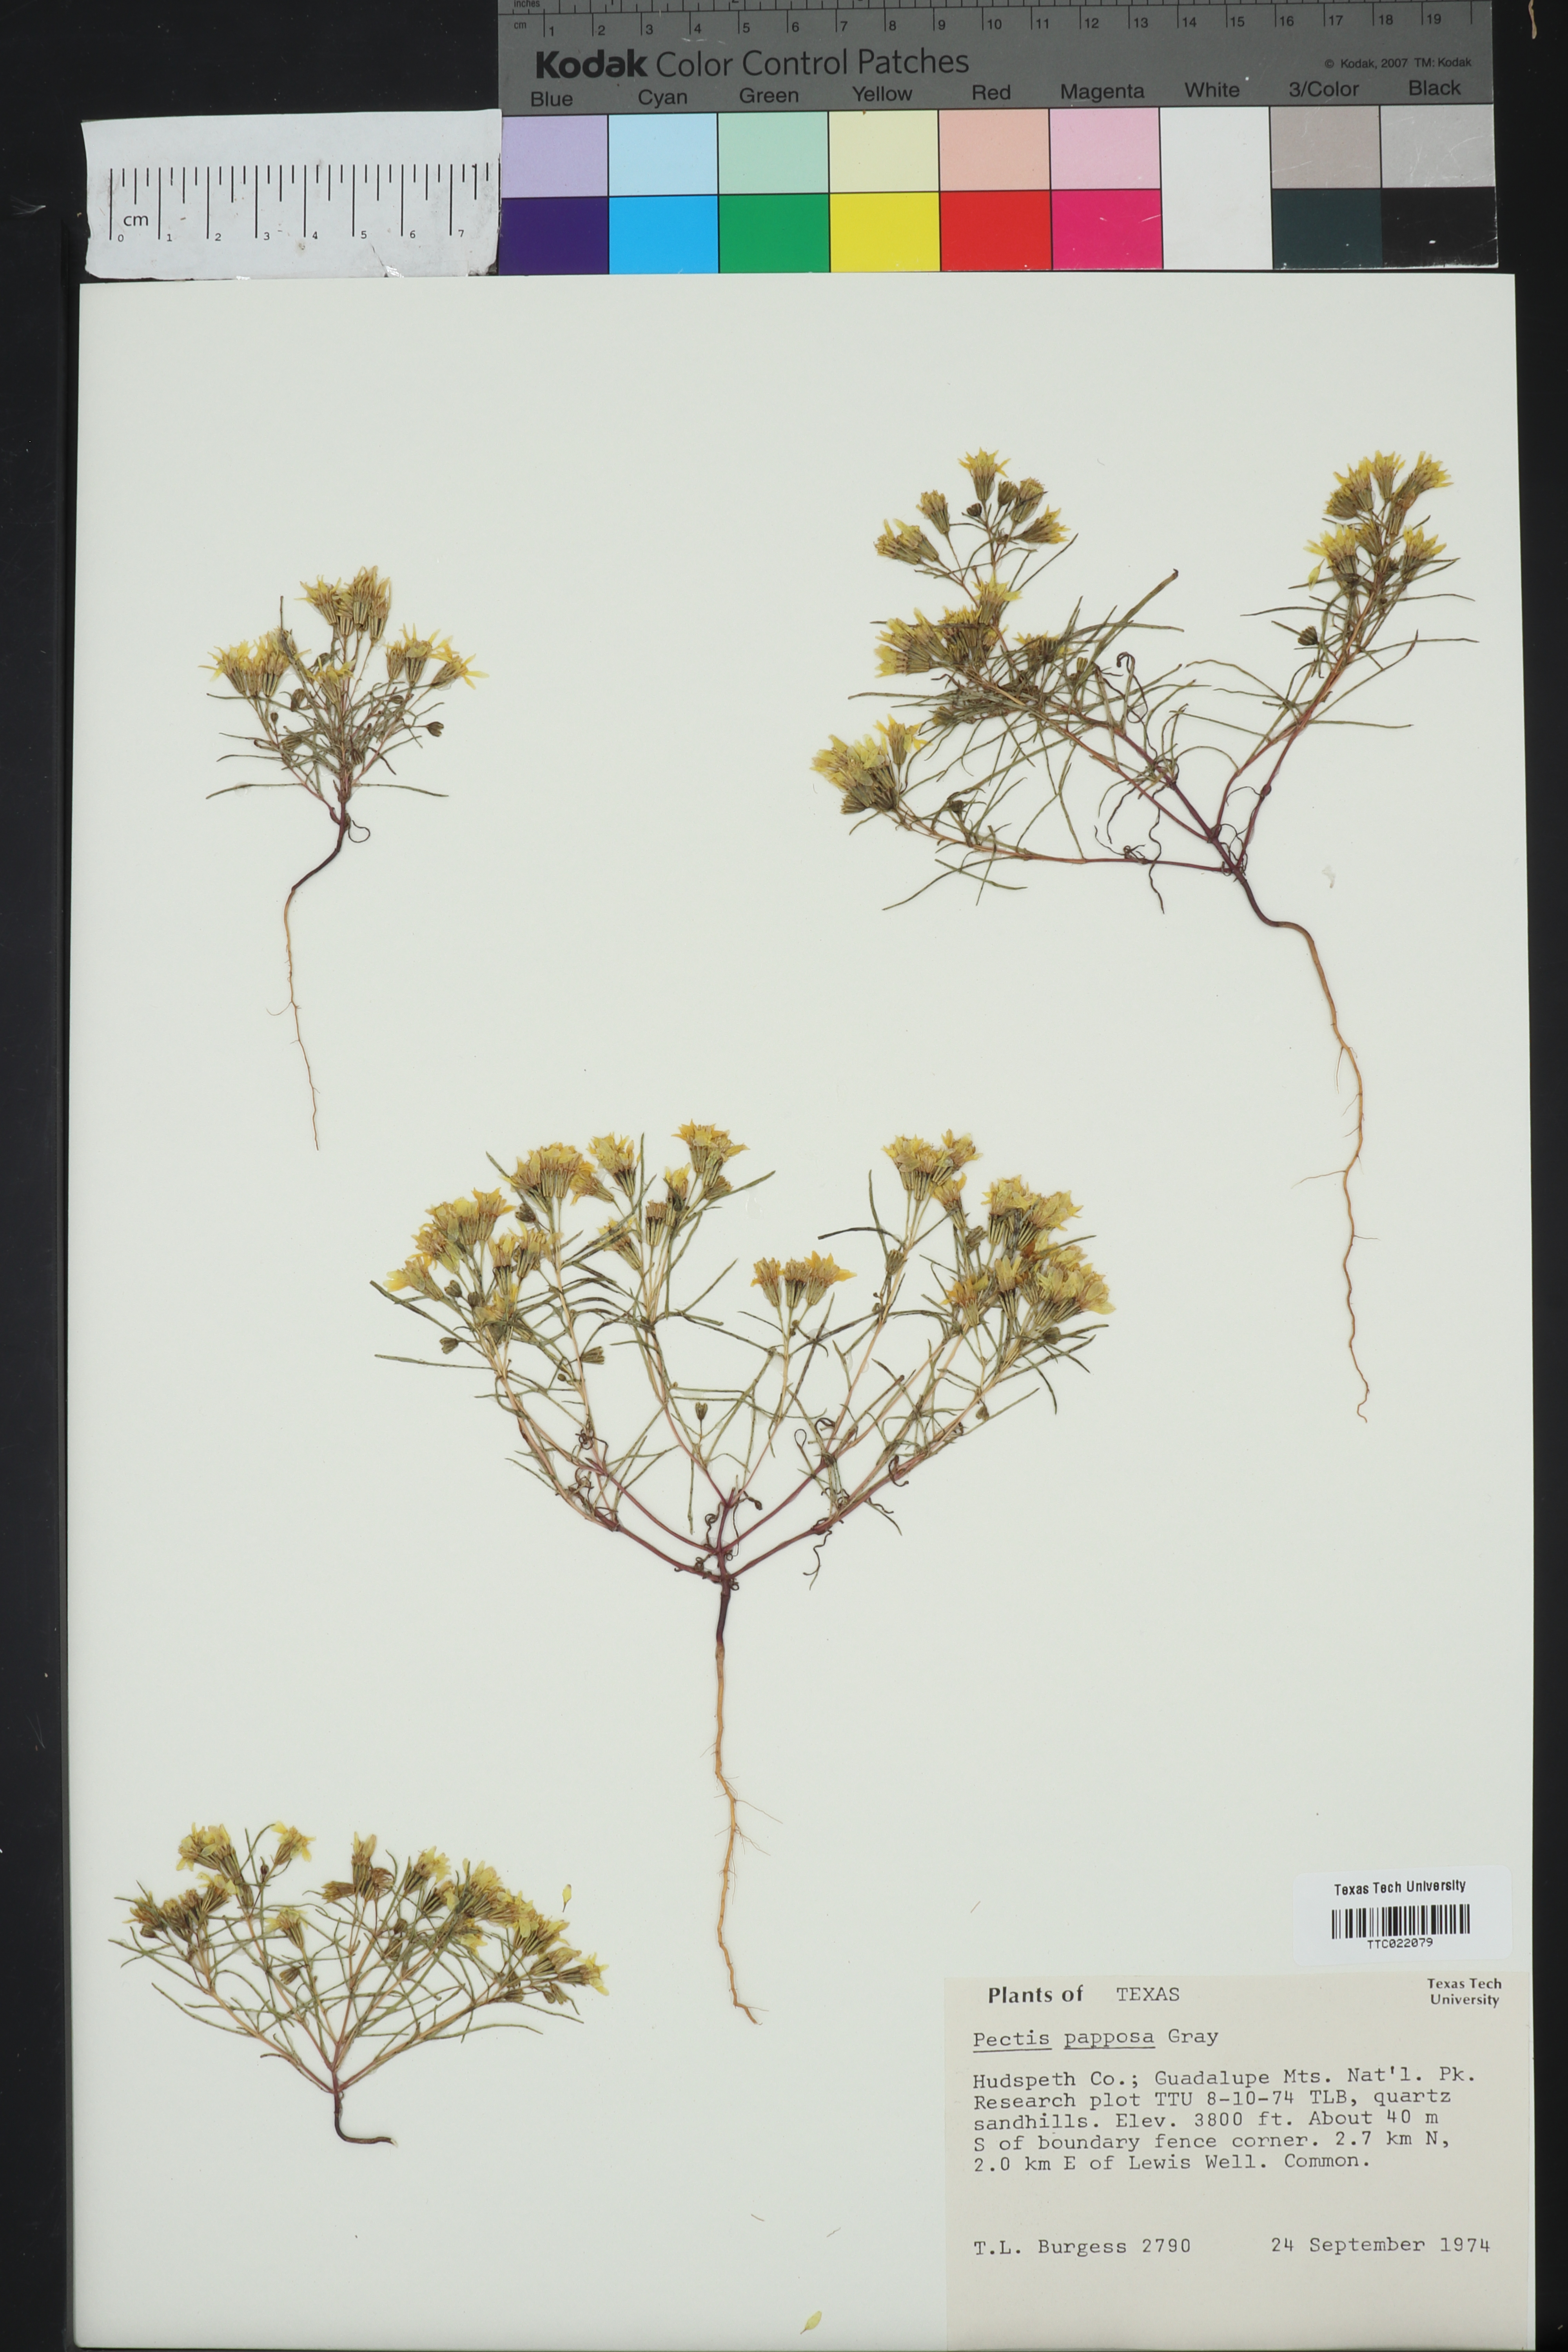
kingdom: Plantae
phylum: Tracheophyta
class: Magnoliopsida
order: Asterales
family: Asteraceae
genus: Pectis
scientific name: Pectis papposa
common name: Many-bristle chinchweed
